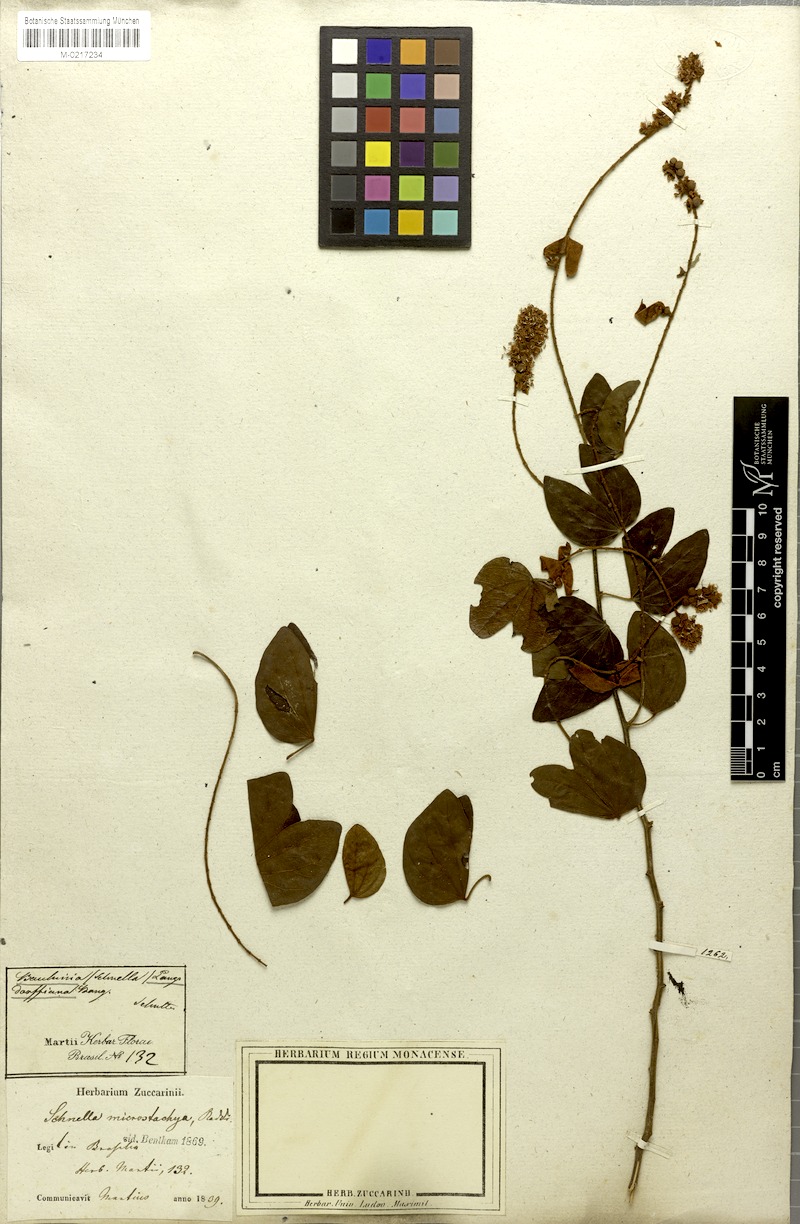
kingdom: Plantae
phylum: Tracheophyta
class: Magnoliopsida
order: Fabales
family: Fabaceae
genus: Schnella
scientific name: Schnella microstachya
